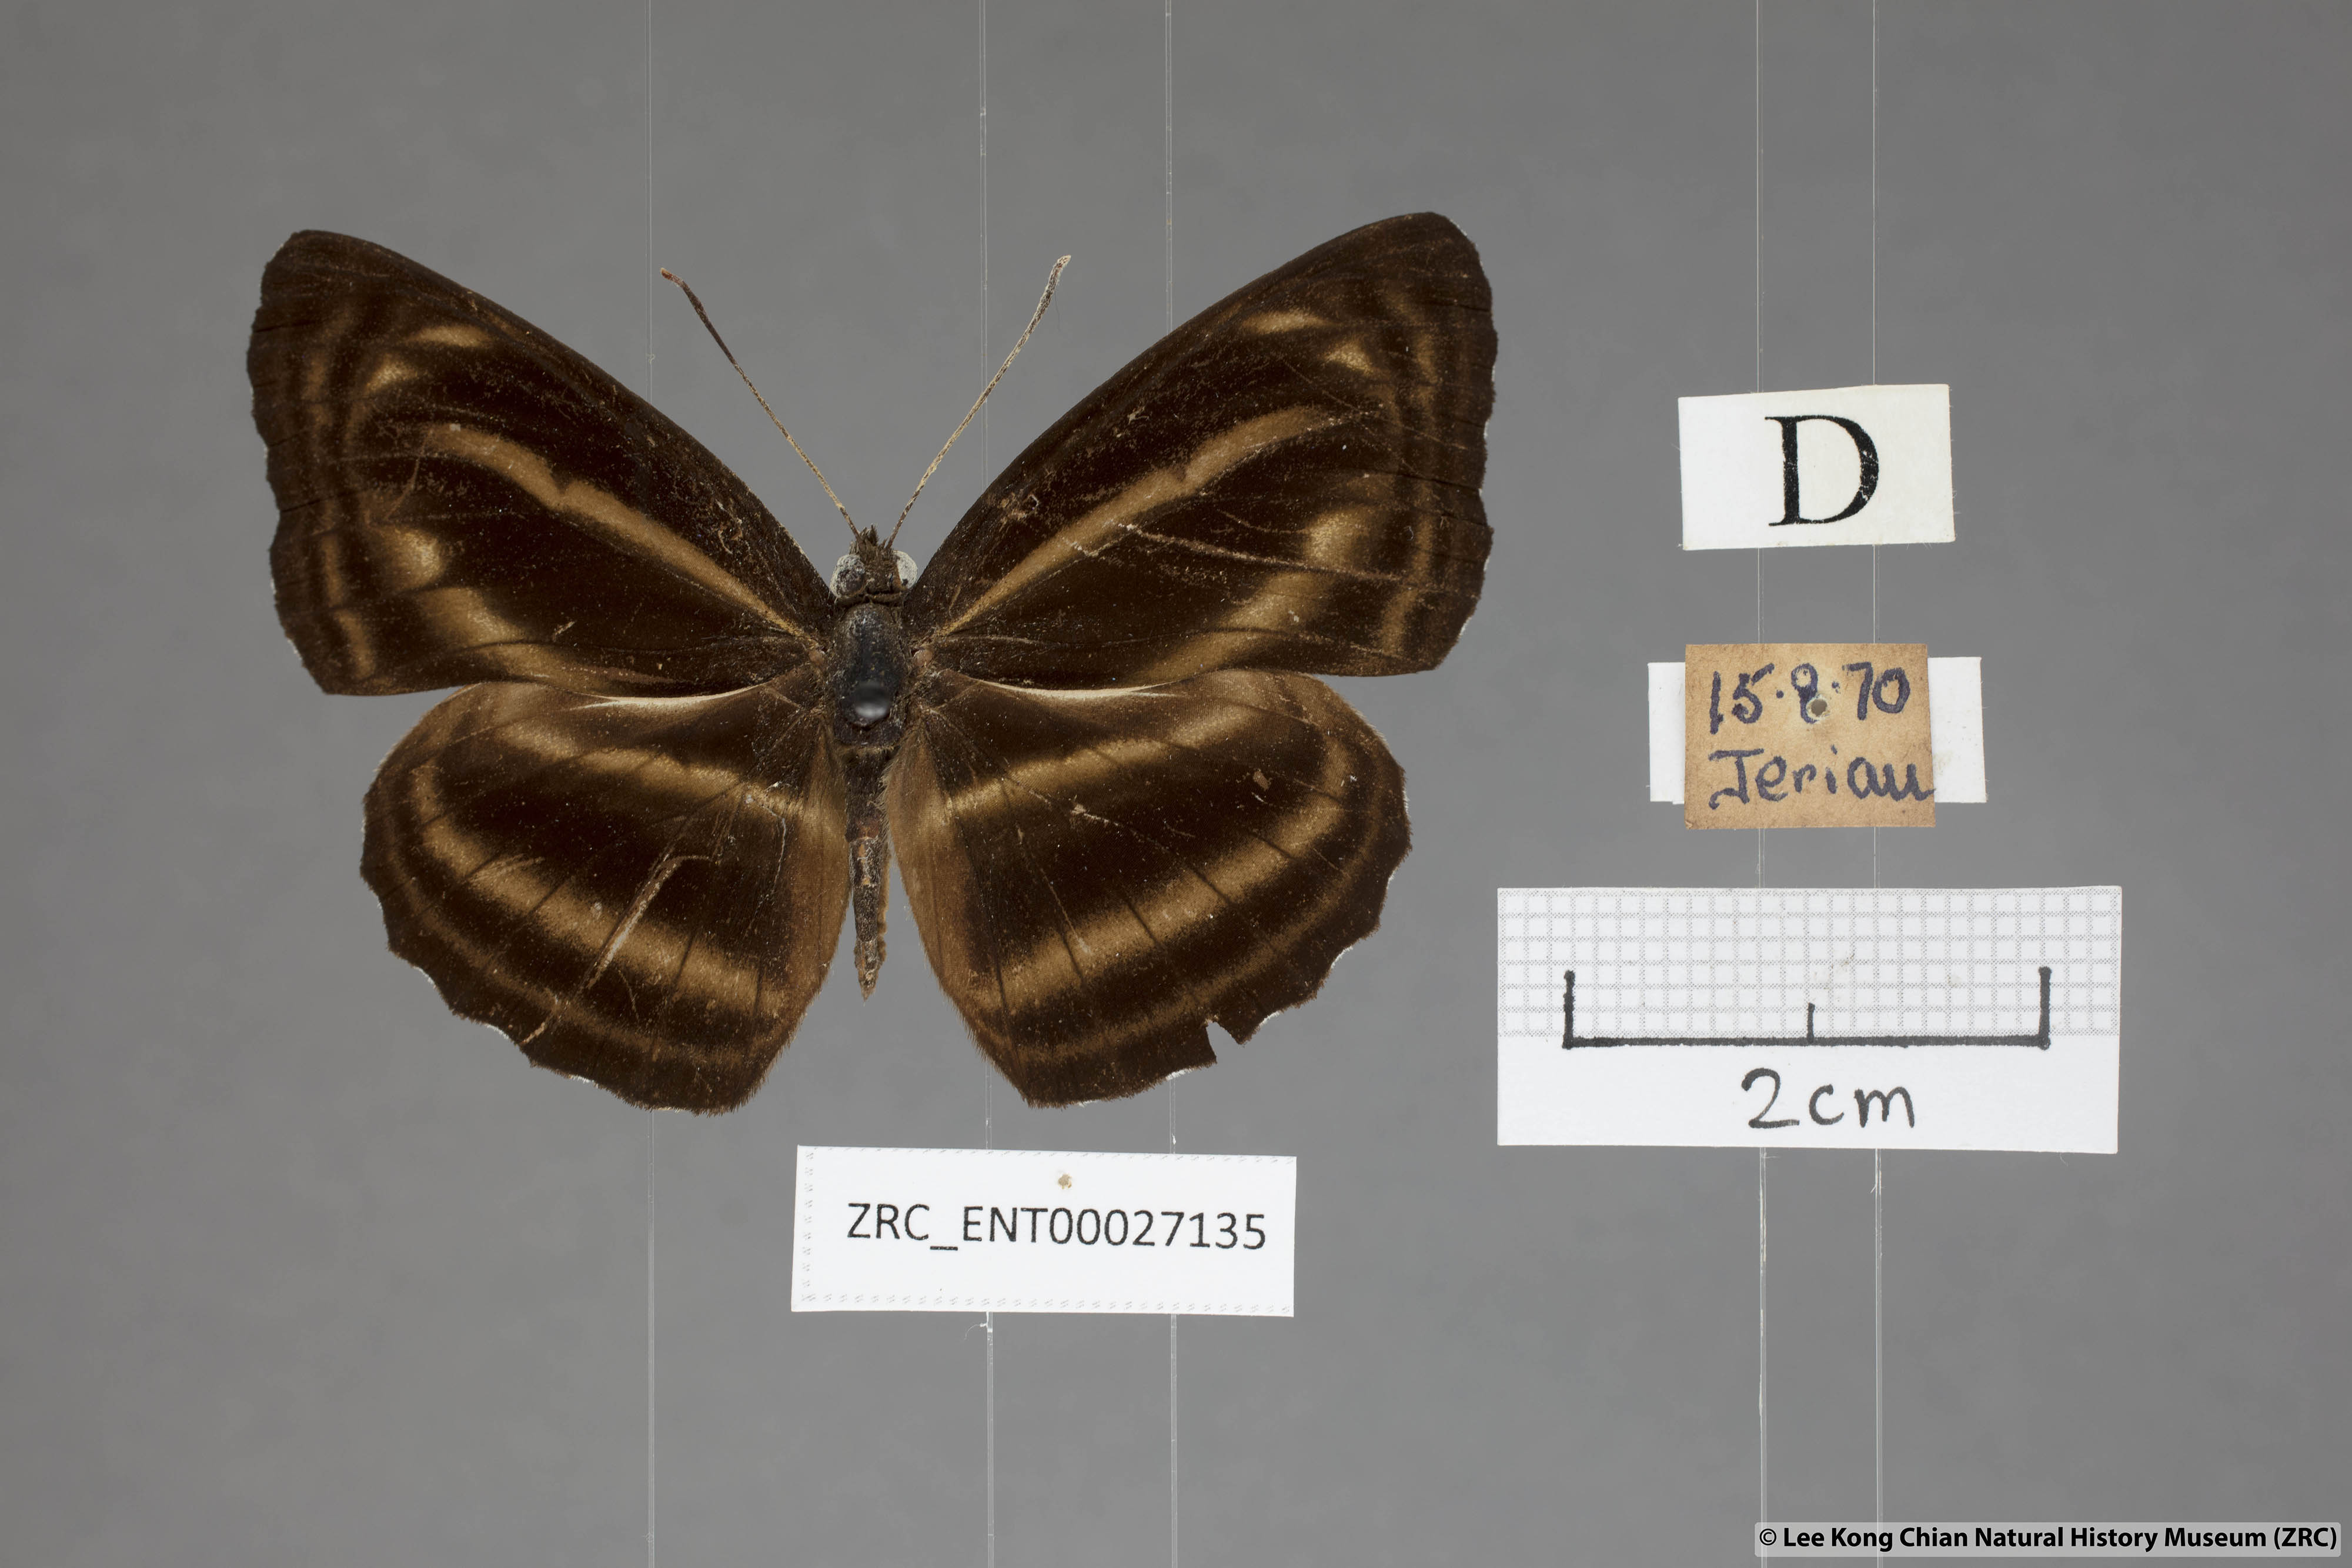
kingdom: Animalia
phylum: Arthropoda
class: Insecta
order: Lepidoptera
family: Nymphalidae
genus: Neptis
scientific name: Neptis anjana
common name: Rich sailer
